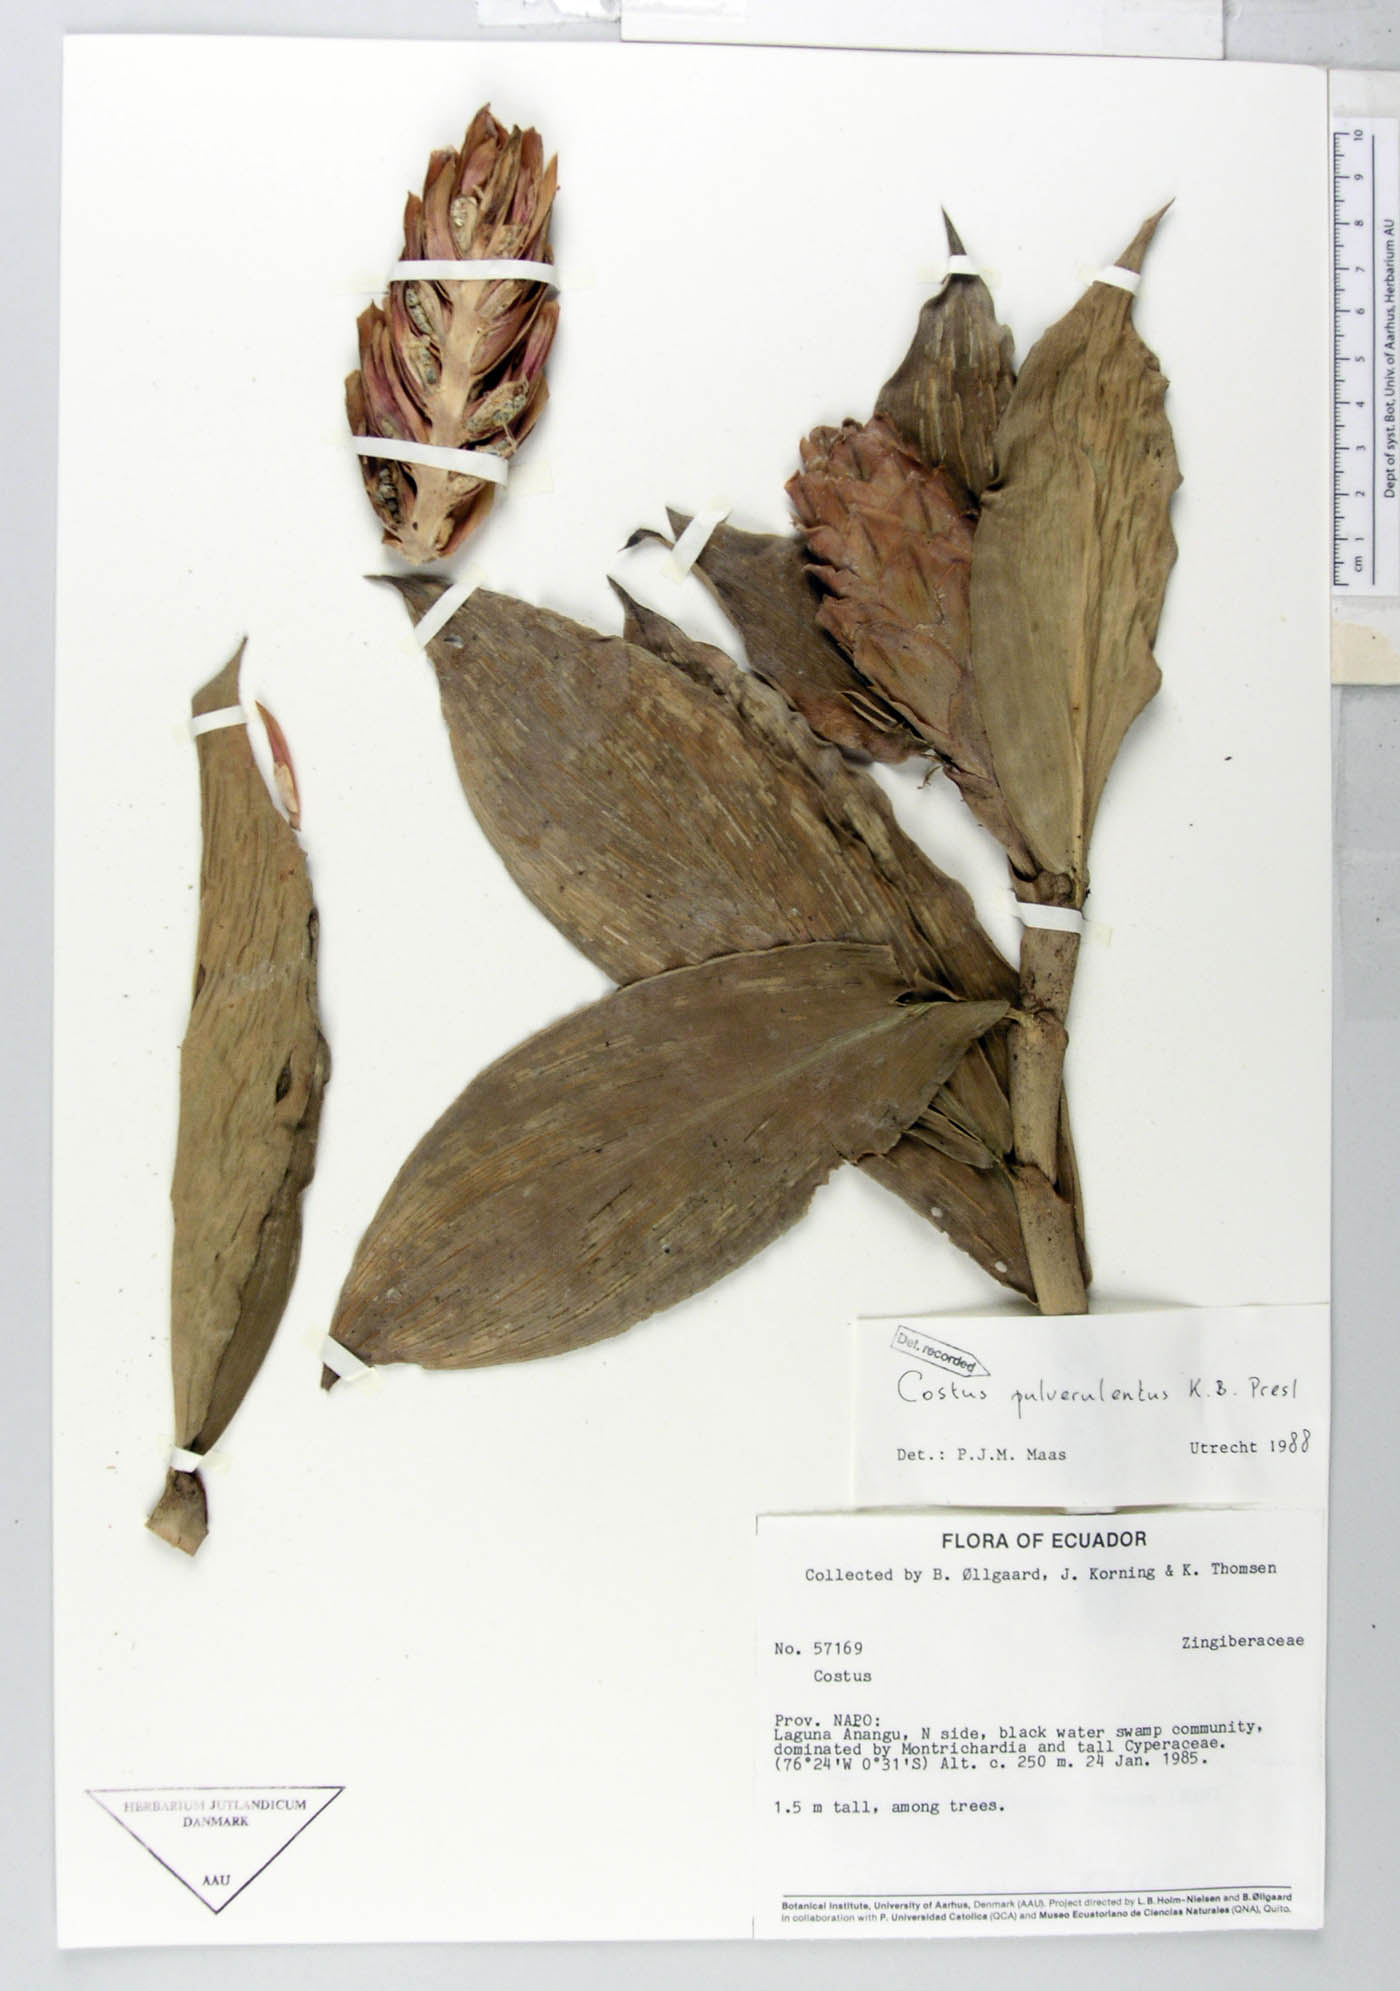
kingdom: Plantae
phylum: Tracheophyta
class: Liliopsida
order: Zingiberales
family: Costaceae
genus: Costus
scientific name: Costus pulverulentus
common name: Spiral ginger
